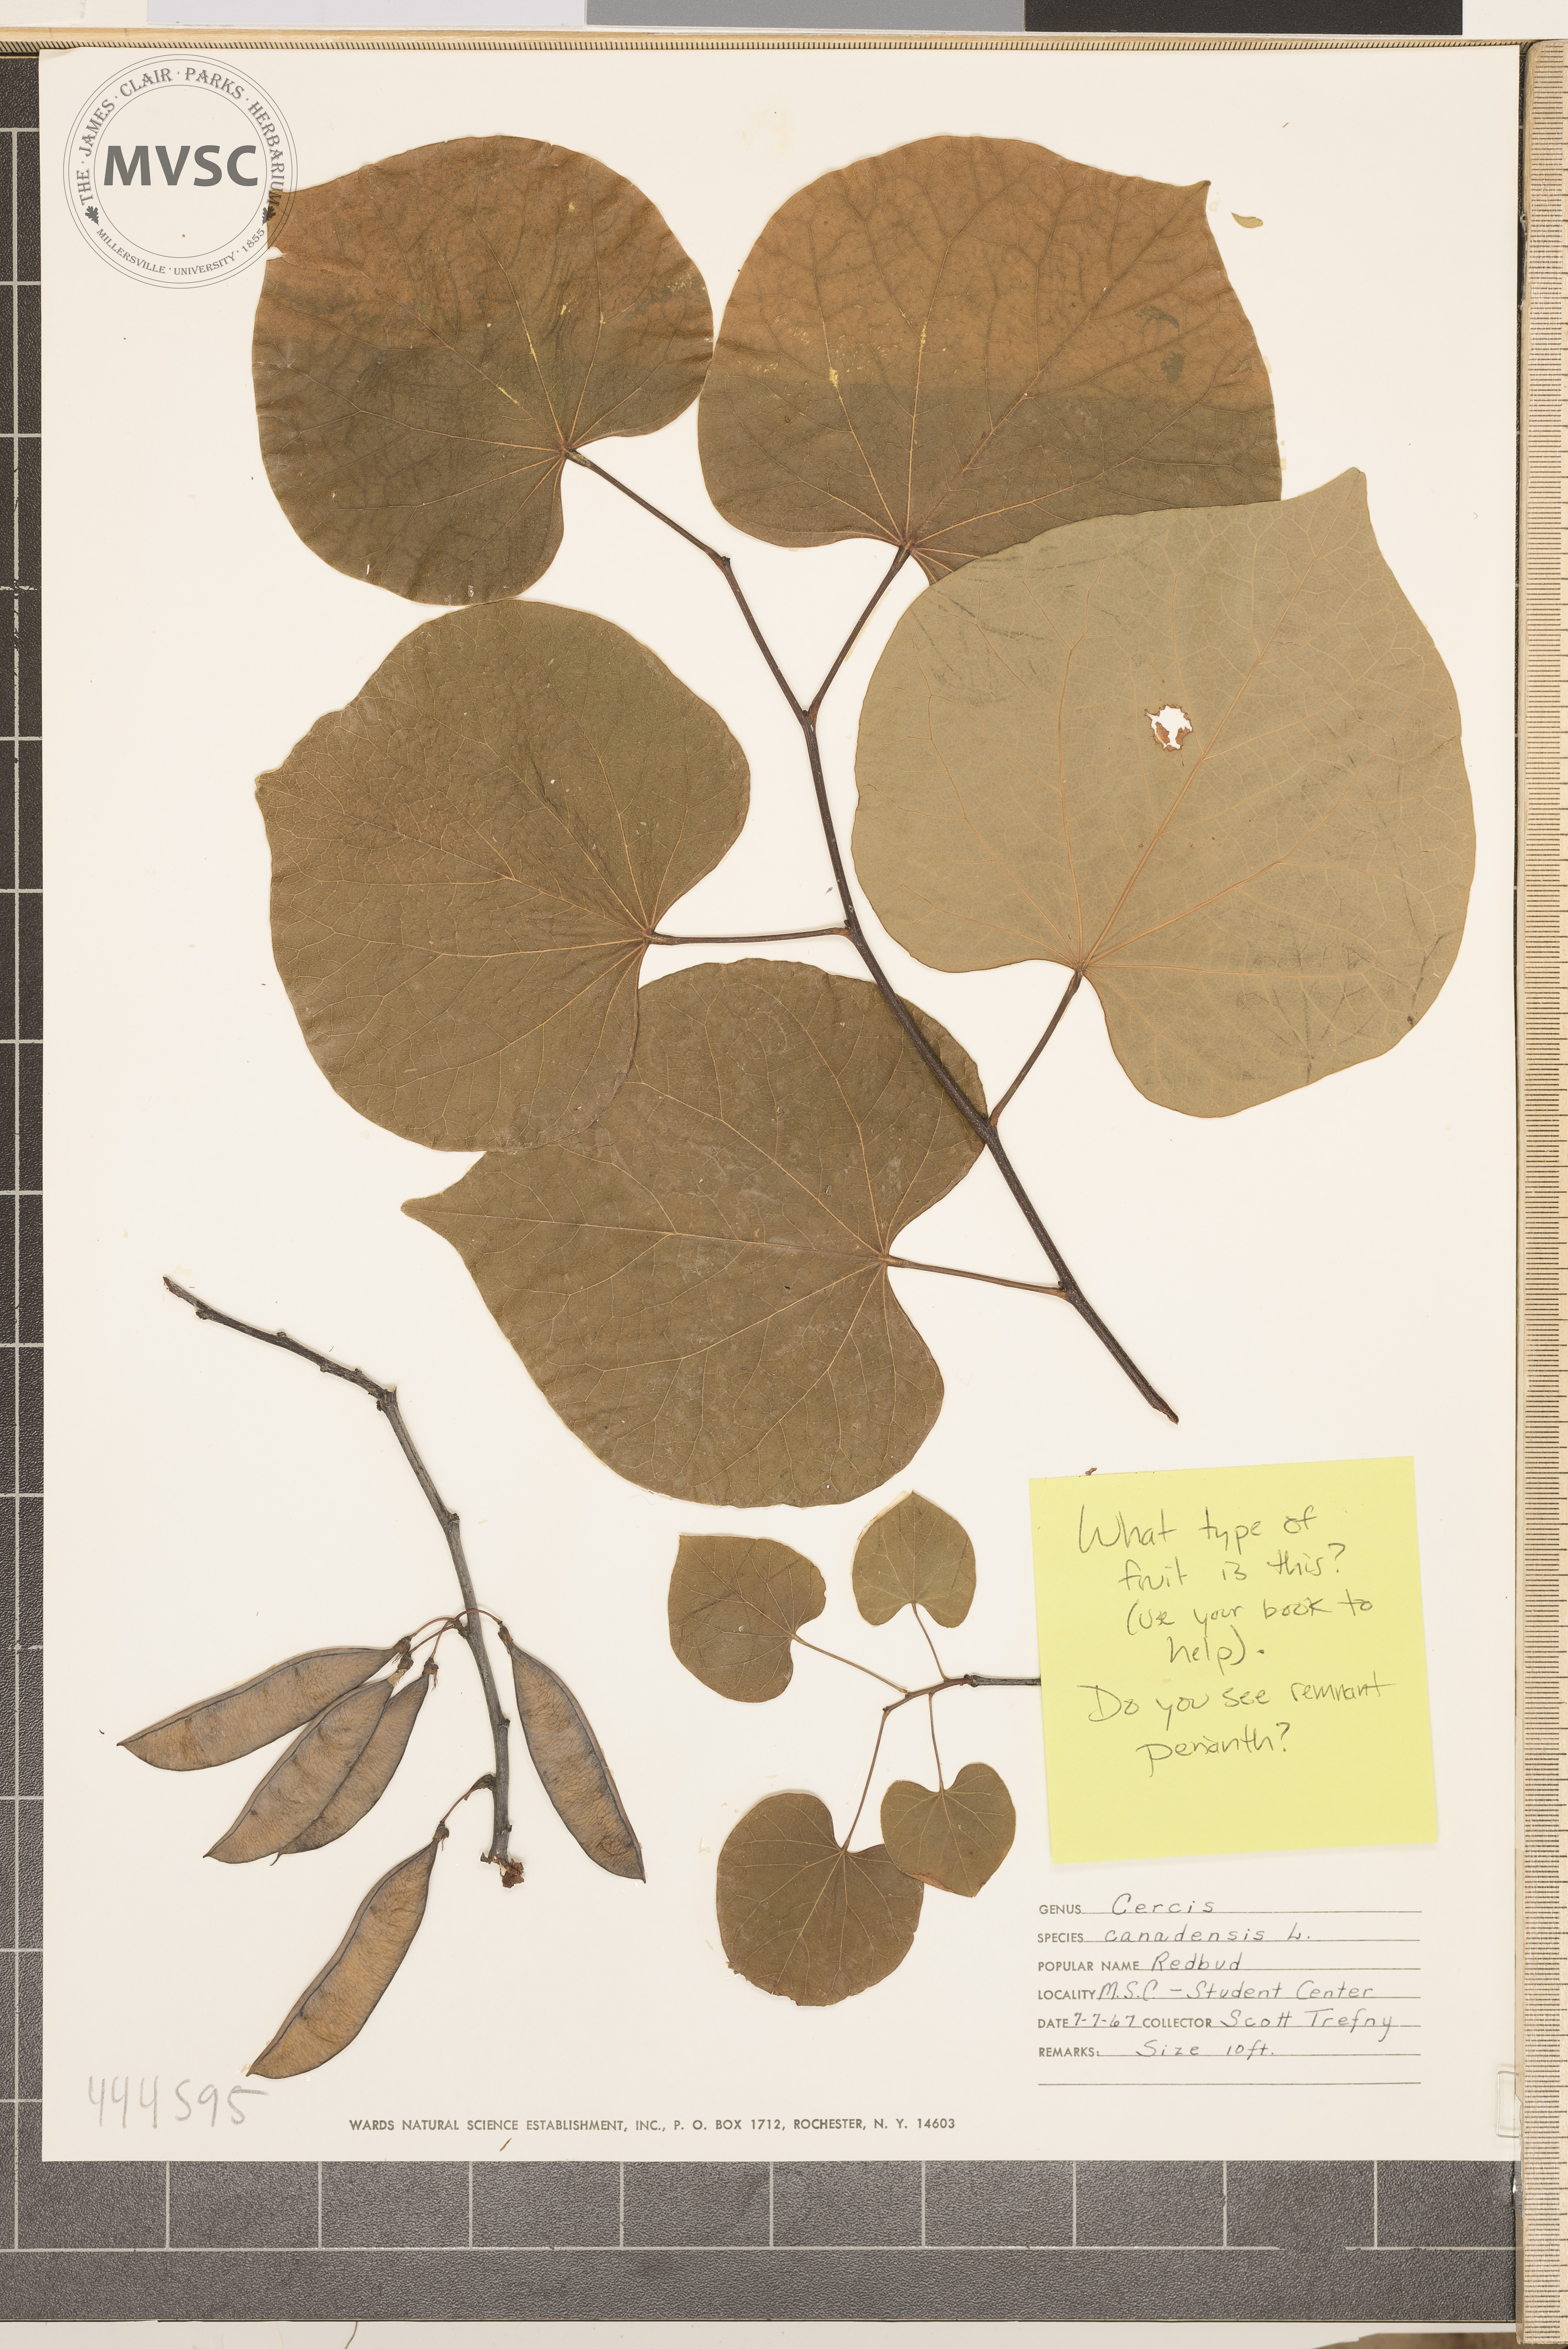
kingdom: Plantae
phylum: Tracheophyta
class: Magnoliopsida
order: Fabales
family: Fabaceae
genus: Cercis
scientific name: Cercis canadensis
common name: Redbud
